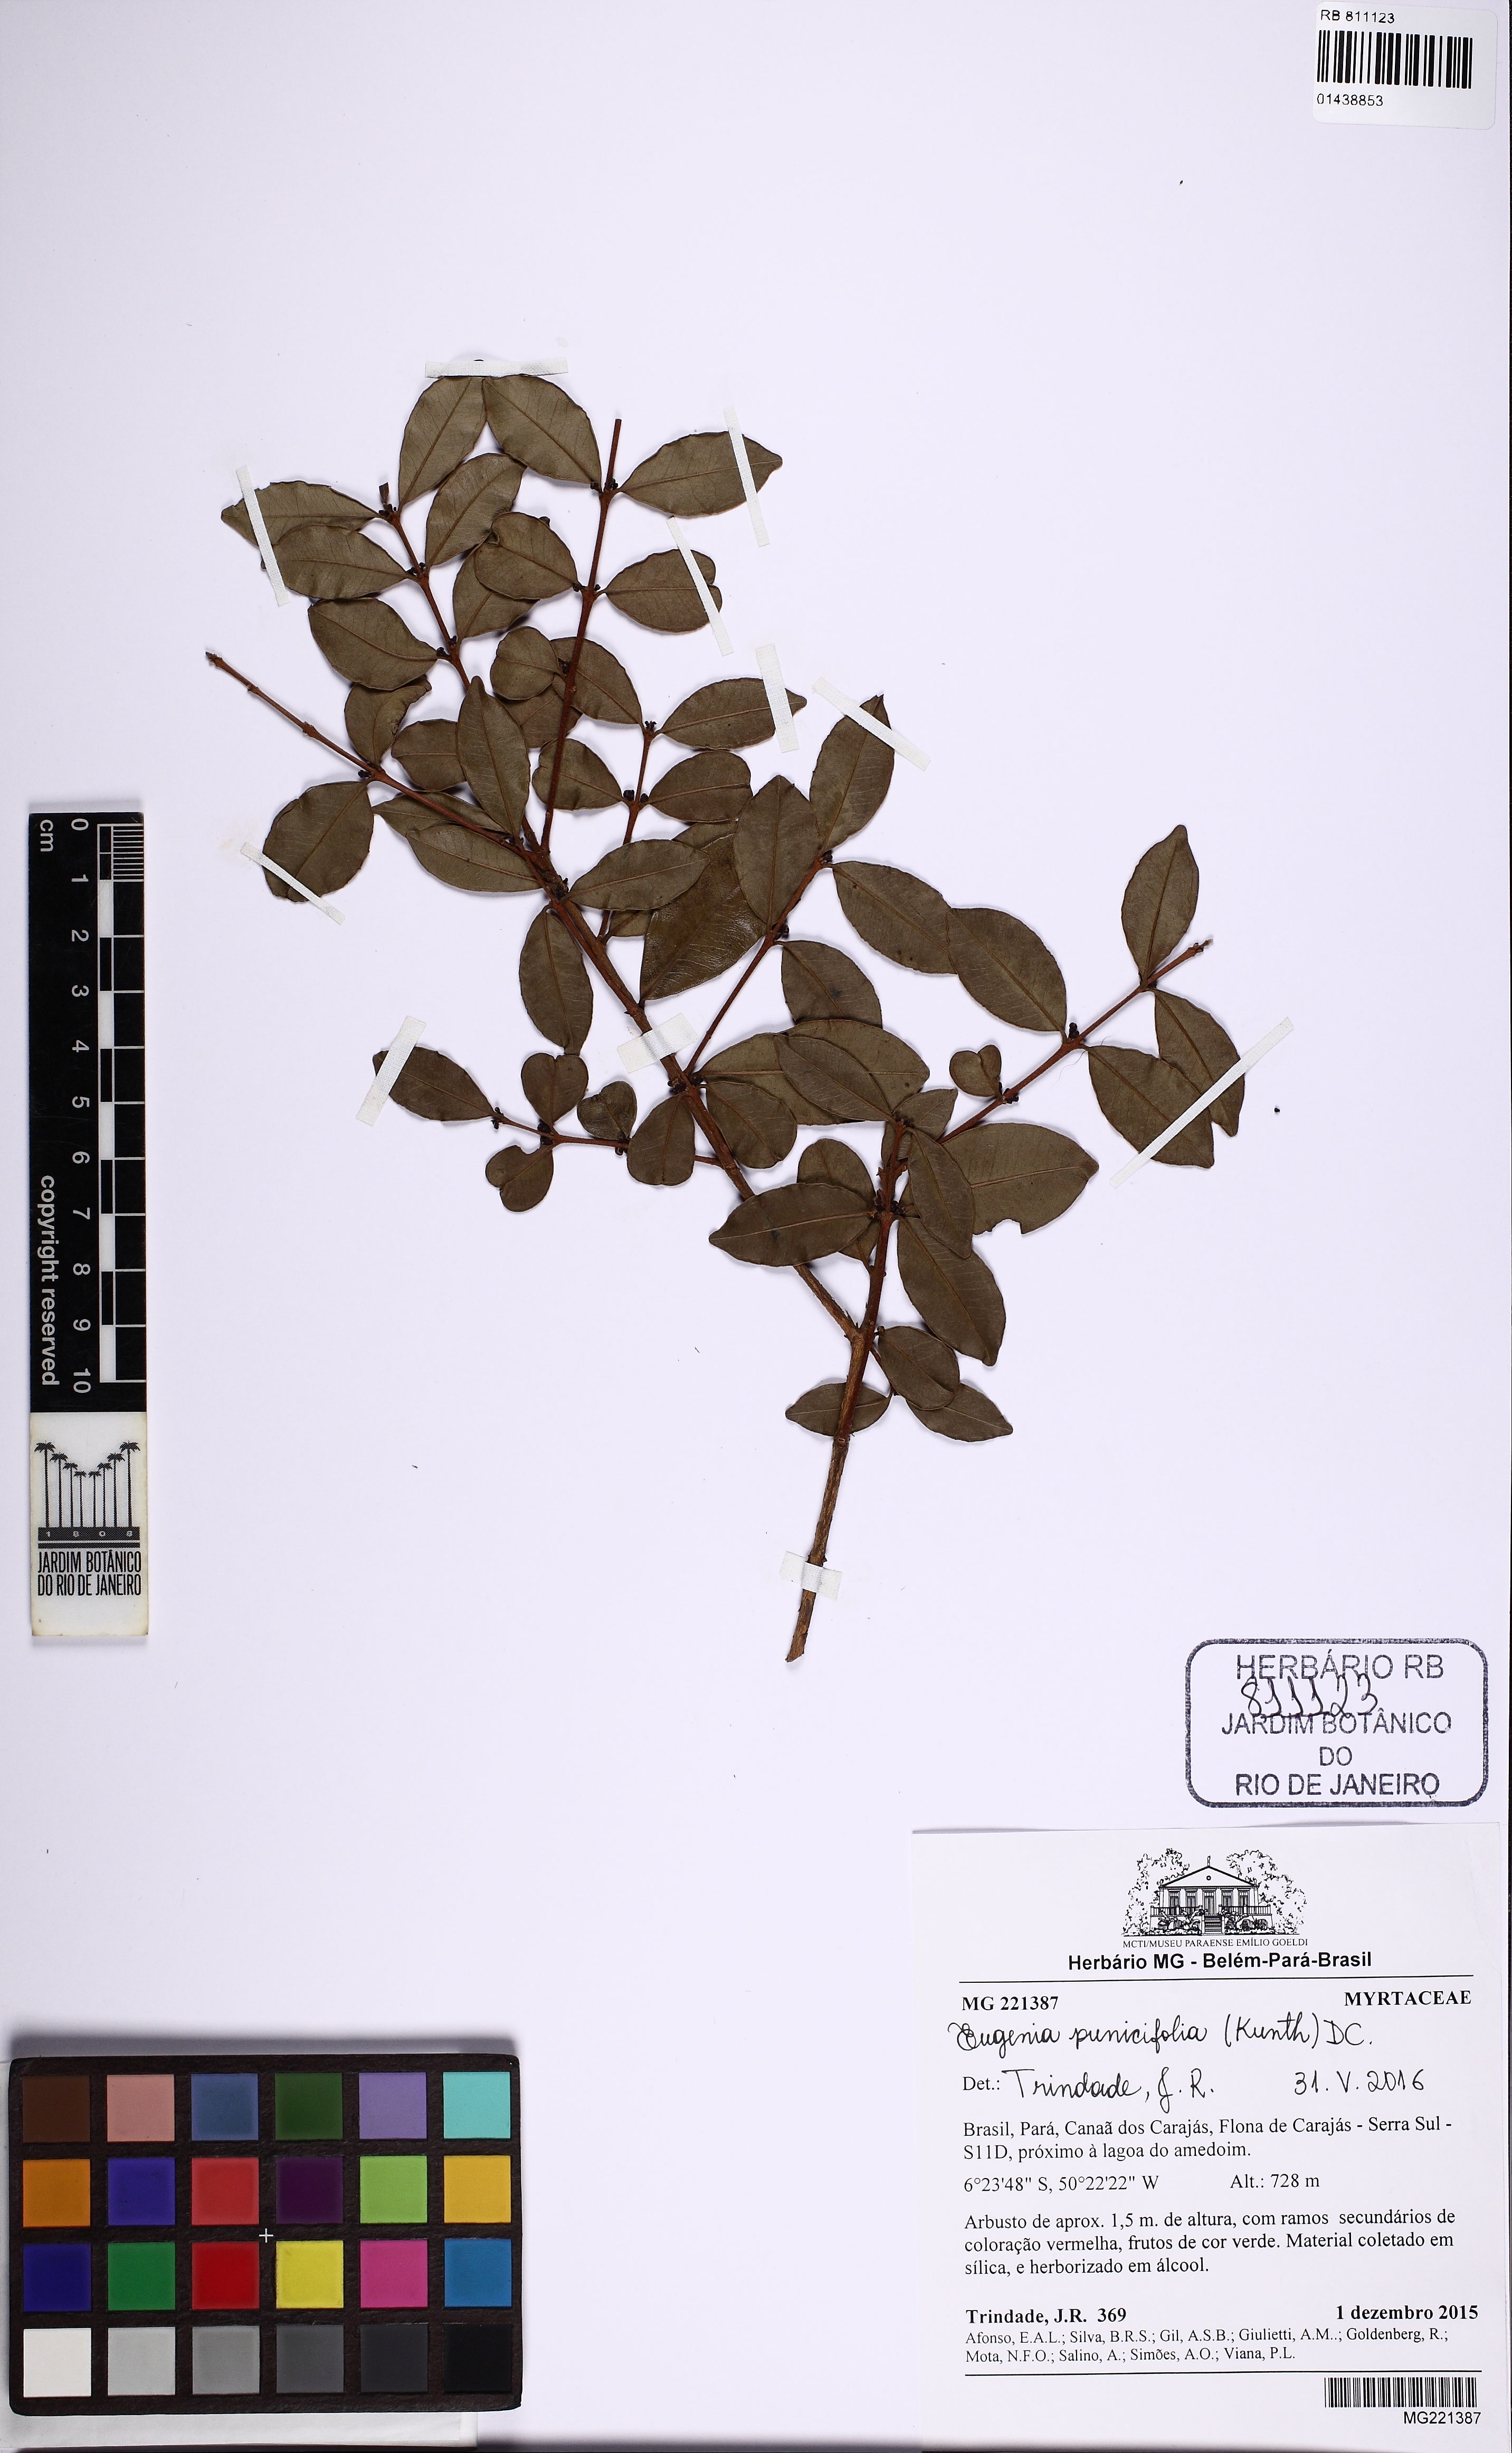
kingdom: Plantae
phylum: Tracheophyta
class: Magnoliopsida
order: Myrtales
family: Myrtaceae
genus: Eugenia
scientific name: Eugenia punicifolia
